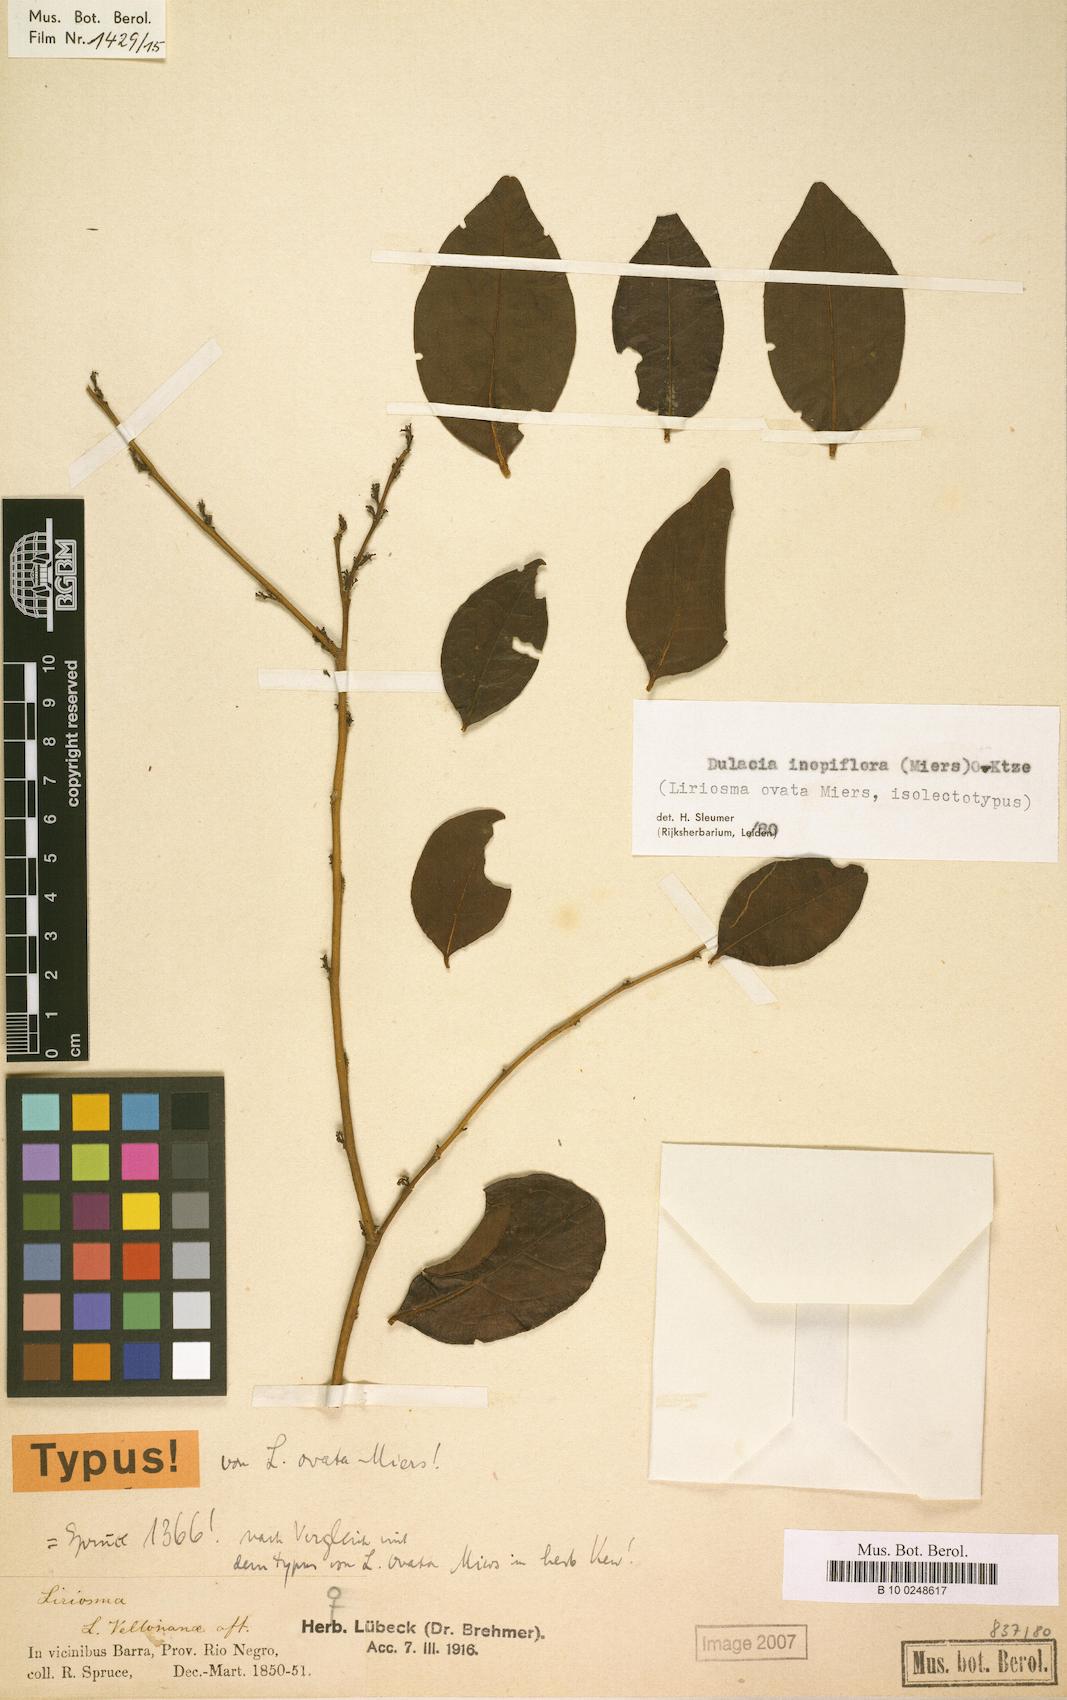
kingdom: Plantae
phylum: Tracheophyta
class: Magnoliopsida
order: Santalales
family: Olacaceae
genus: Dulacia
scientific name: Dulacia inopiflora
